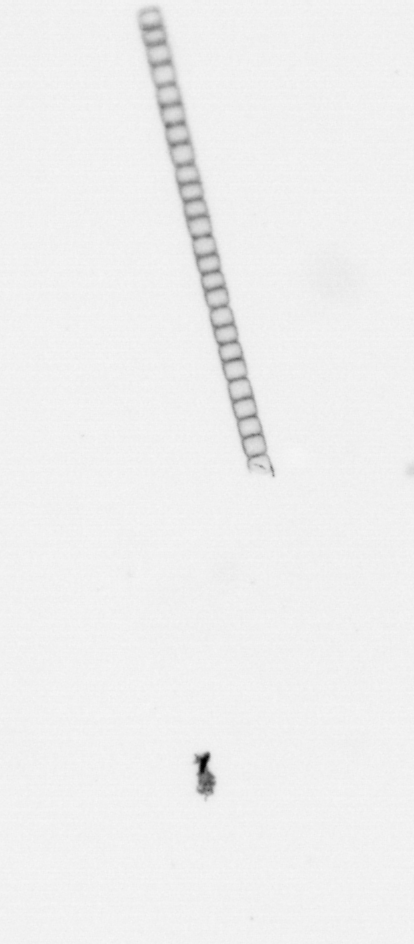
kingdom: Chromista
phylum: Ochrophyta
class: Bacillariophyceae
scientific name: Bacillariophyceae
